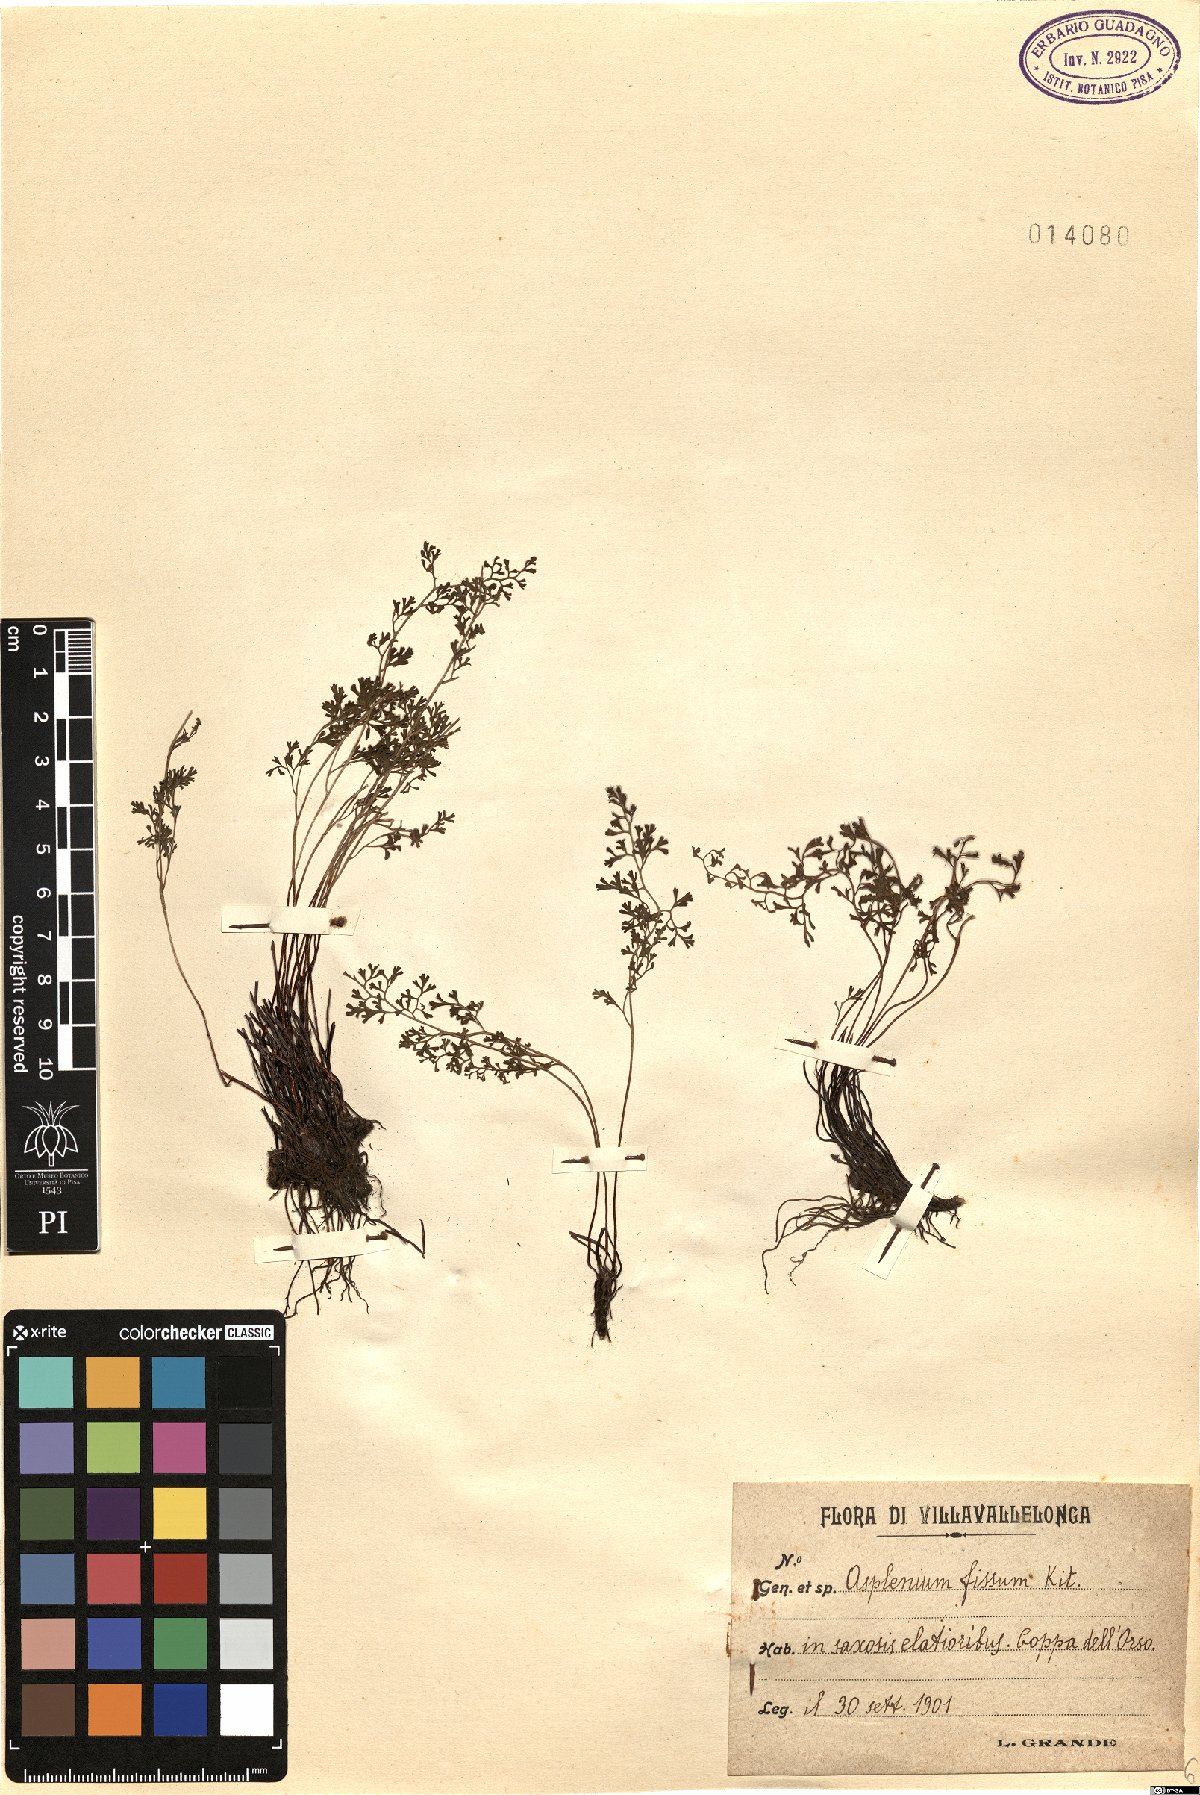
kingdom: Plantae
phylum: Tracheophyta
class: Polypodiopsida
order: Polypodiales
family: Aspleniaceae
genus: Asplenium
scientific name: Asplenium fissum
